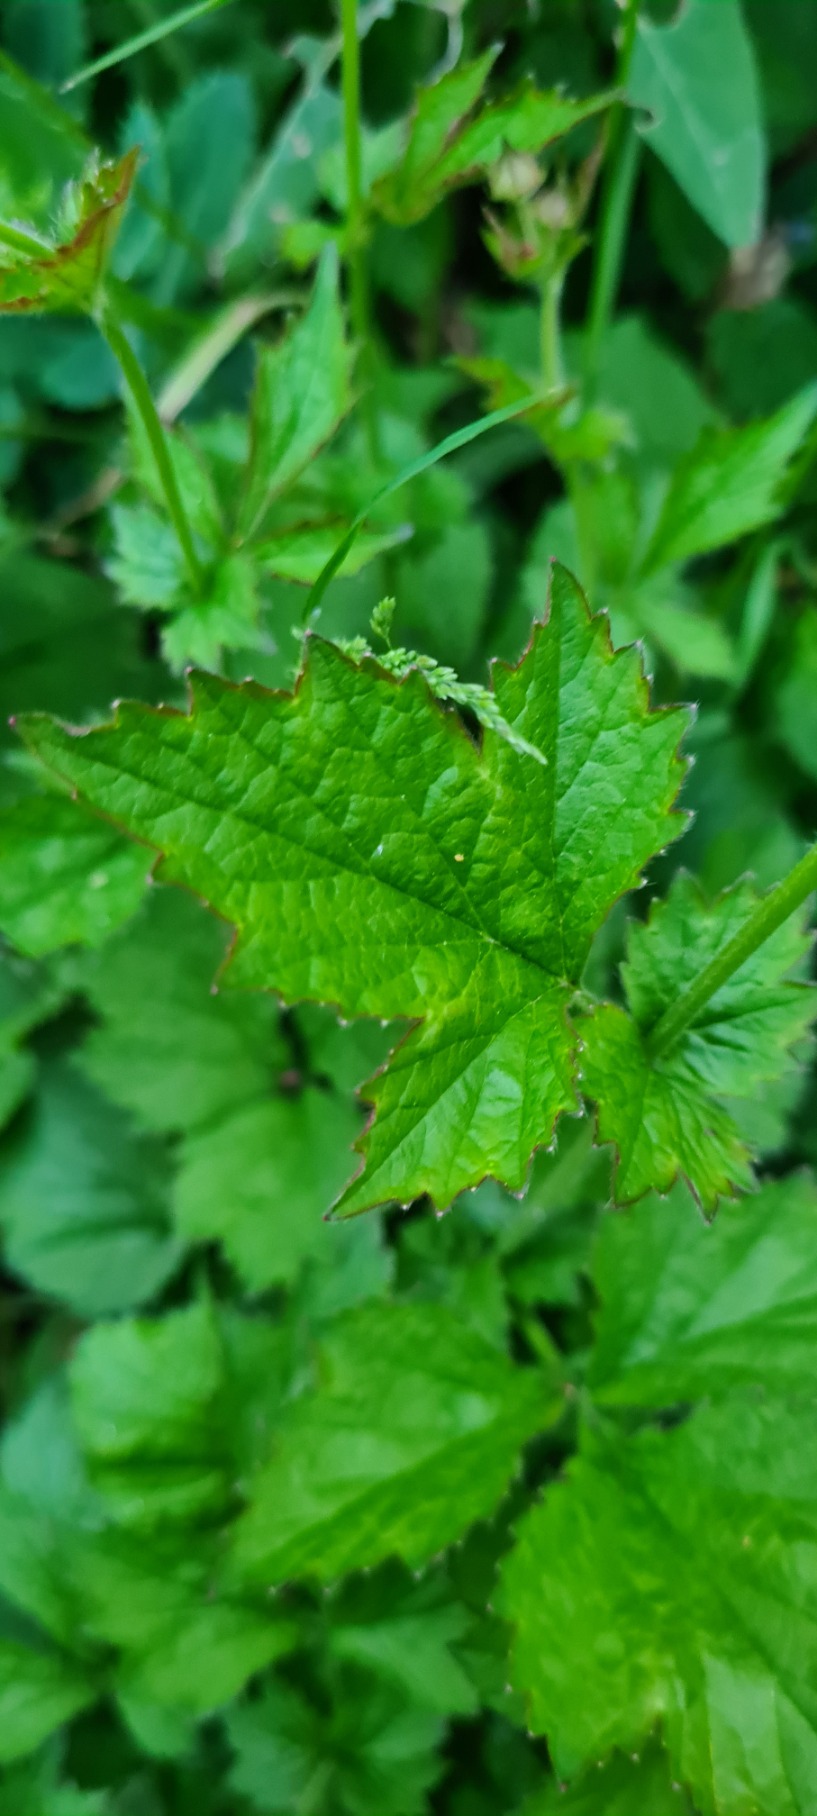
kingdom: Plantae
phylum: Tracheophyta
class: Magnoliopsida
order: Rosales
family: Rosaceae
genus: Geum
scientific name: Geum urbanum
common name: Feber-nellikerod
